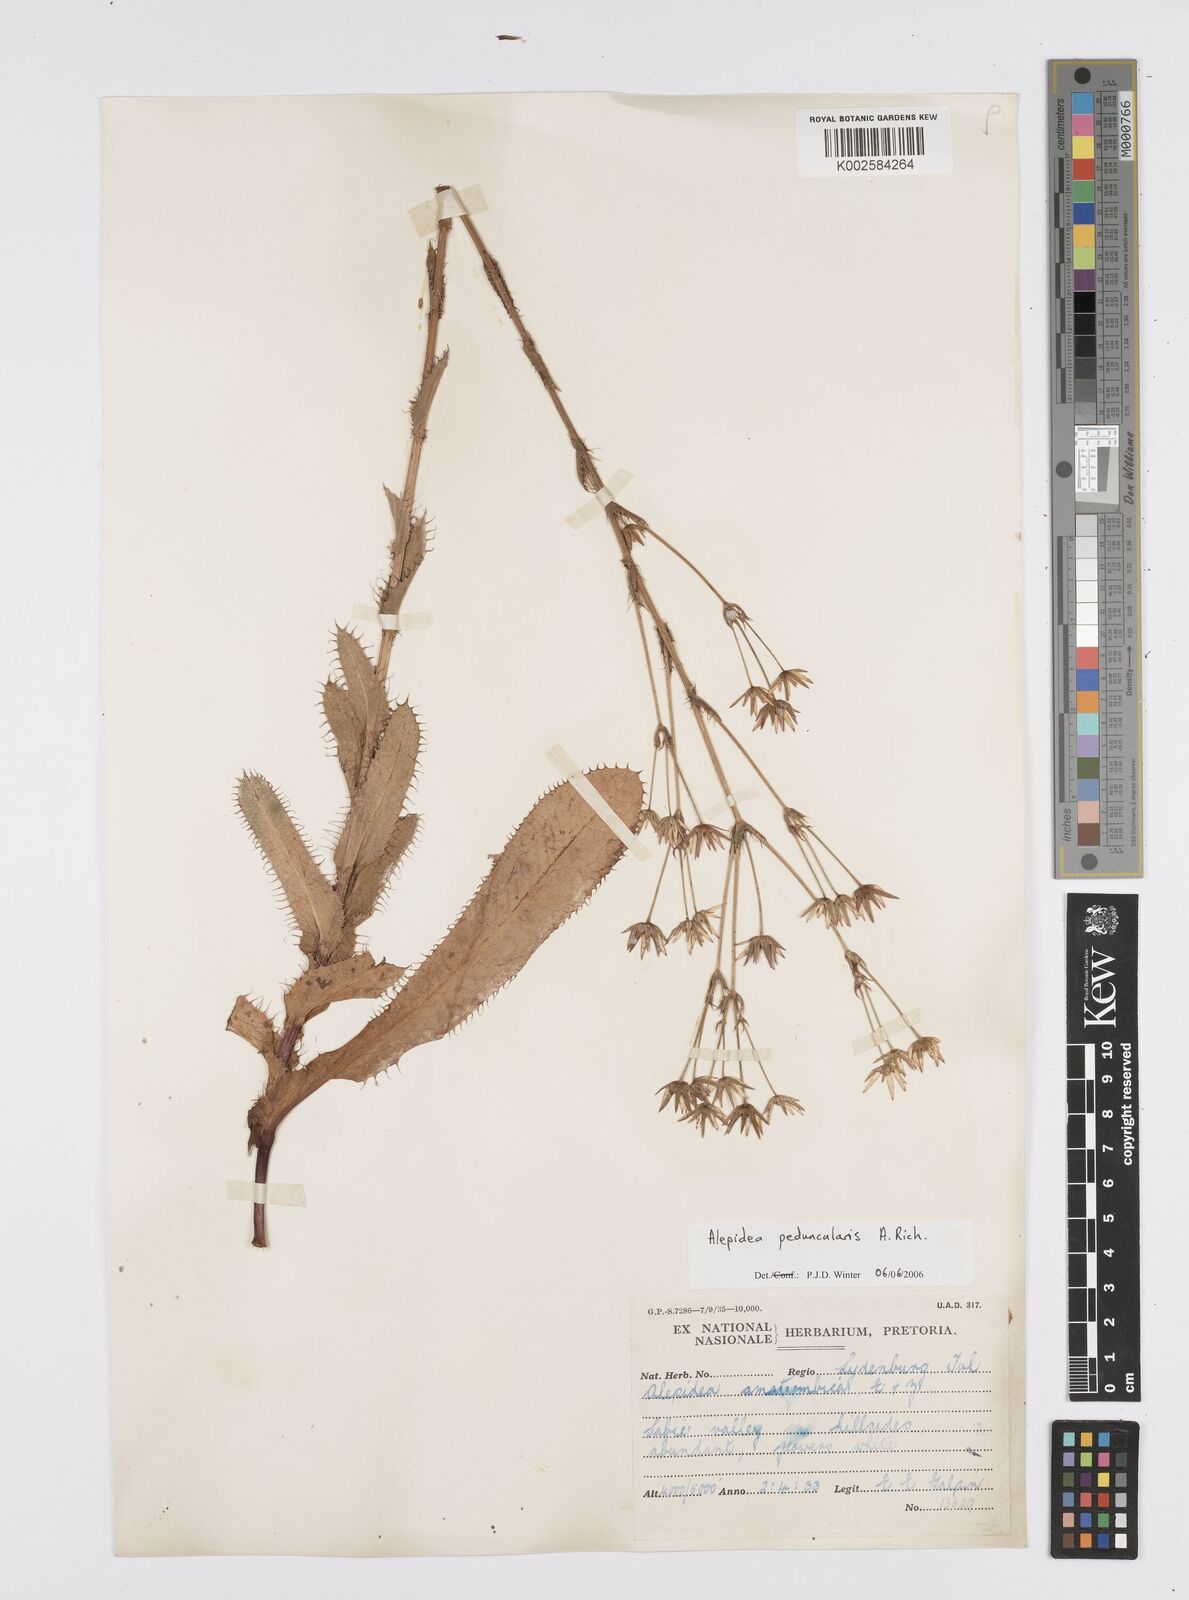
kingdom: Plantae
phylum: Tracheophyta
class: Magnoliopsida
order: Apiales
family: Apiaceae
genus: Alepidea
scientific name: Alepidea peduncularis
